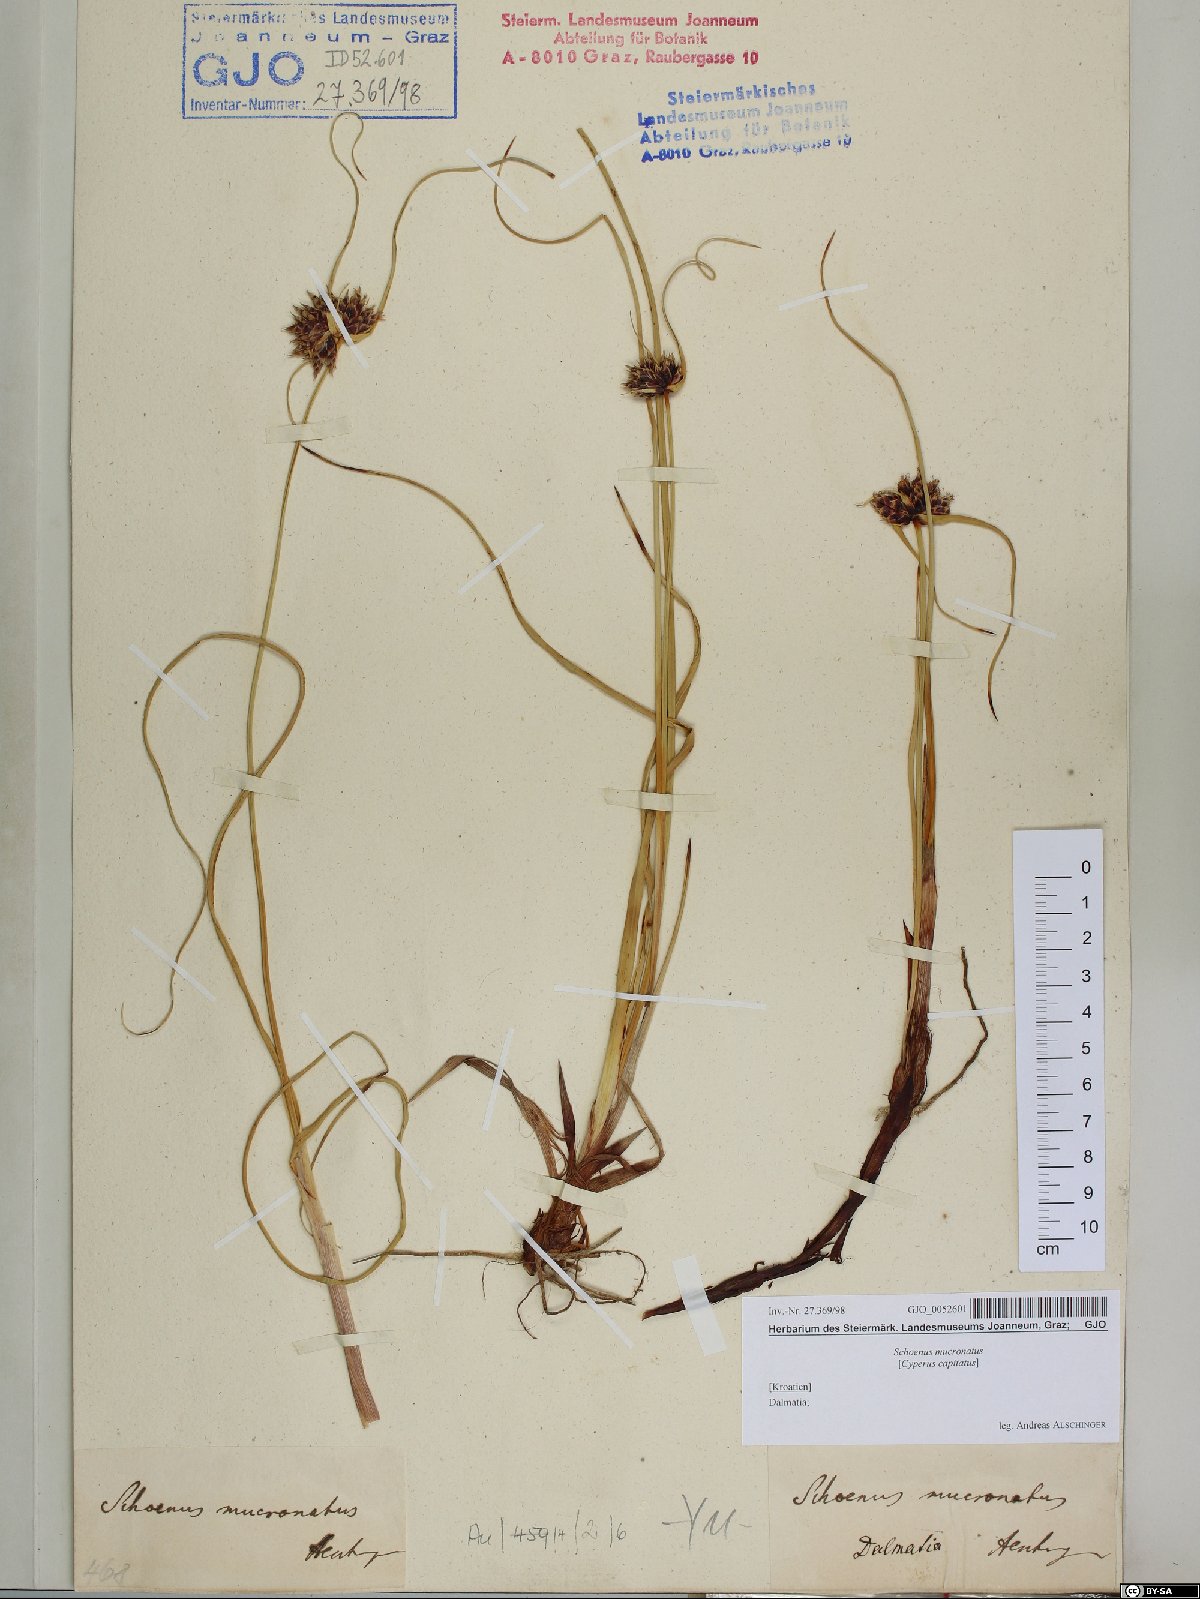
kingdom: Plantae
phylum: Tracheophyta
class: Liliopsida
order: Poales
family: Cyperaceae
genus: Cyperus
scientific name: Cyperus capitatus
